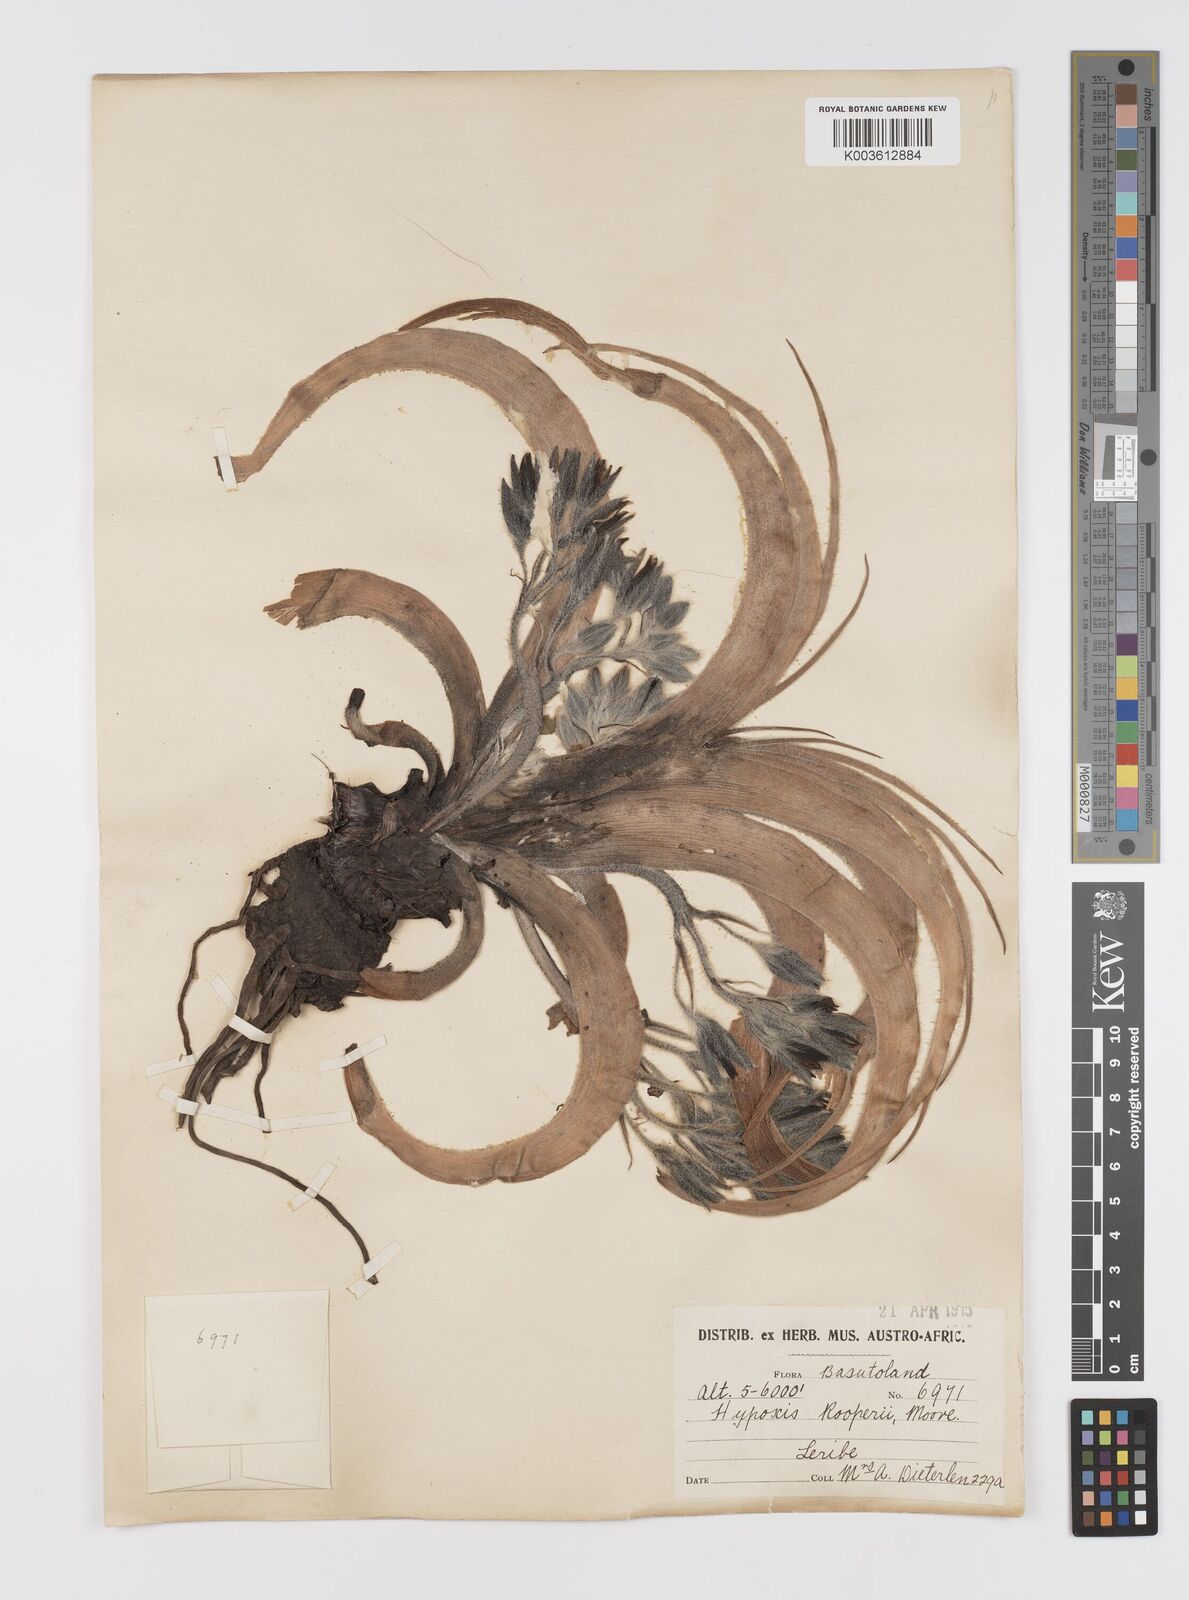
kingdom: Plantae
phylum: Tracheophyta
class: Liliopsida
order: Asparagales
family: Hypoxidaceae
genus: Hypoxis
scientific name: Hypoxis hemerocallidea
